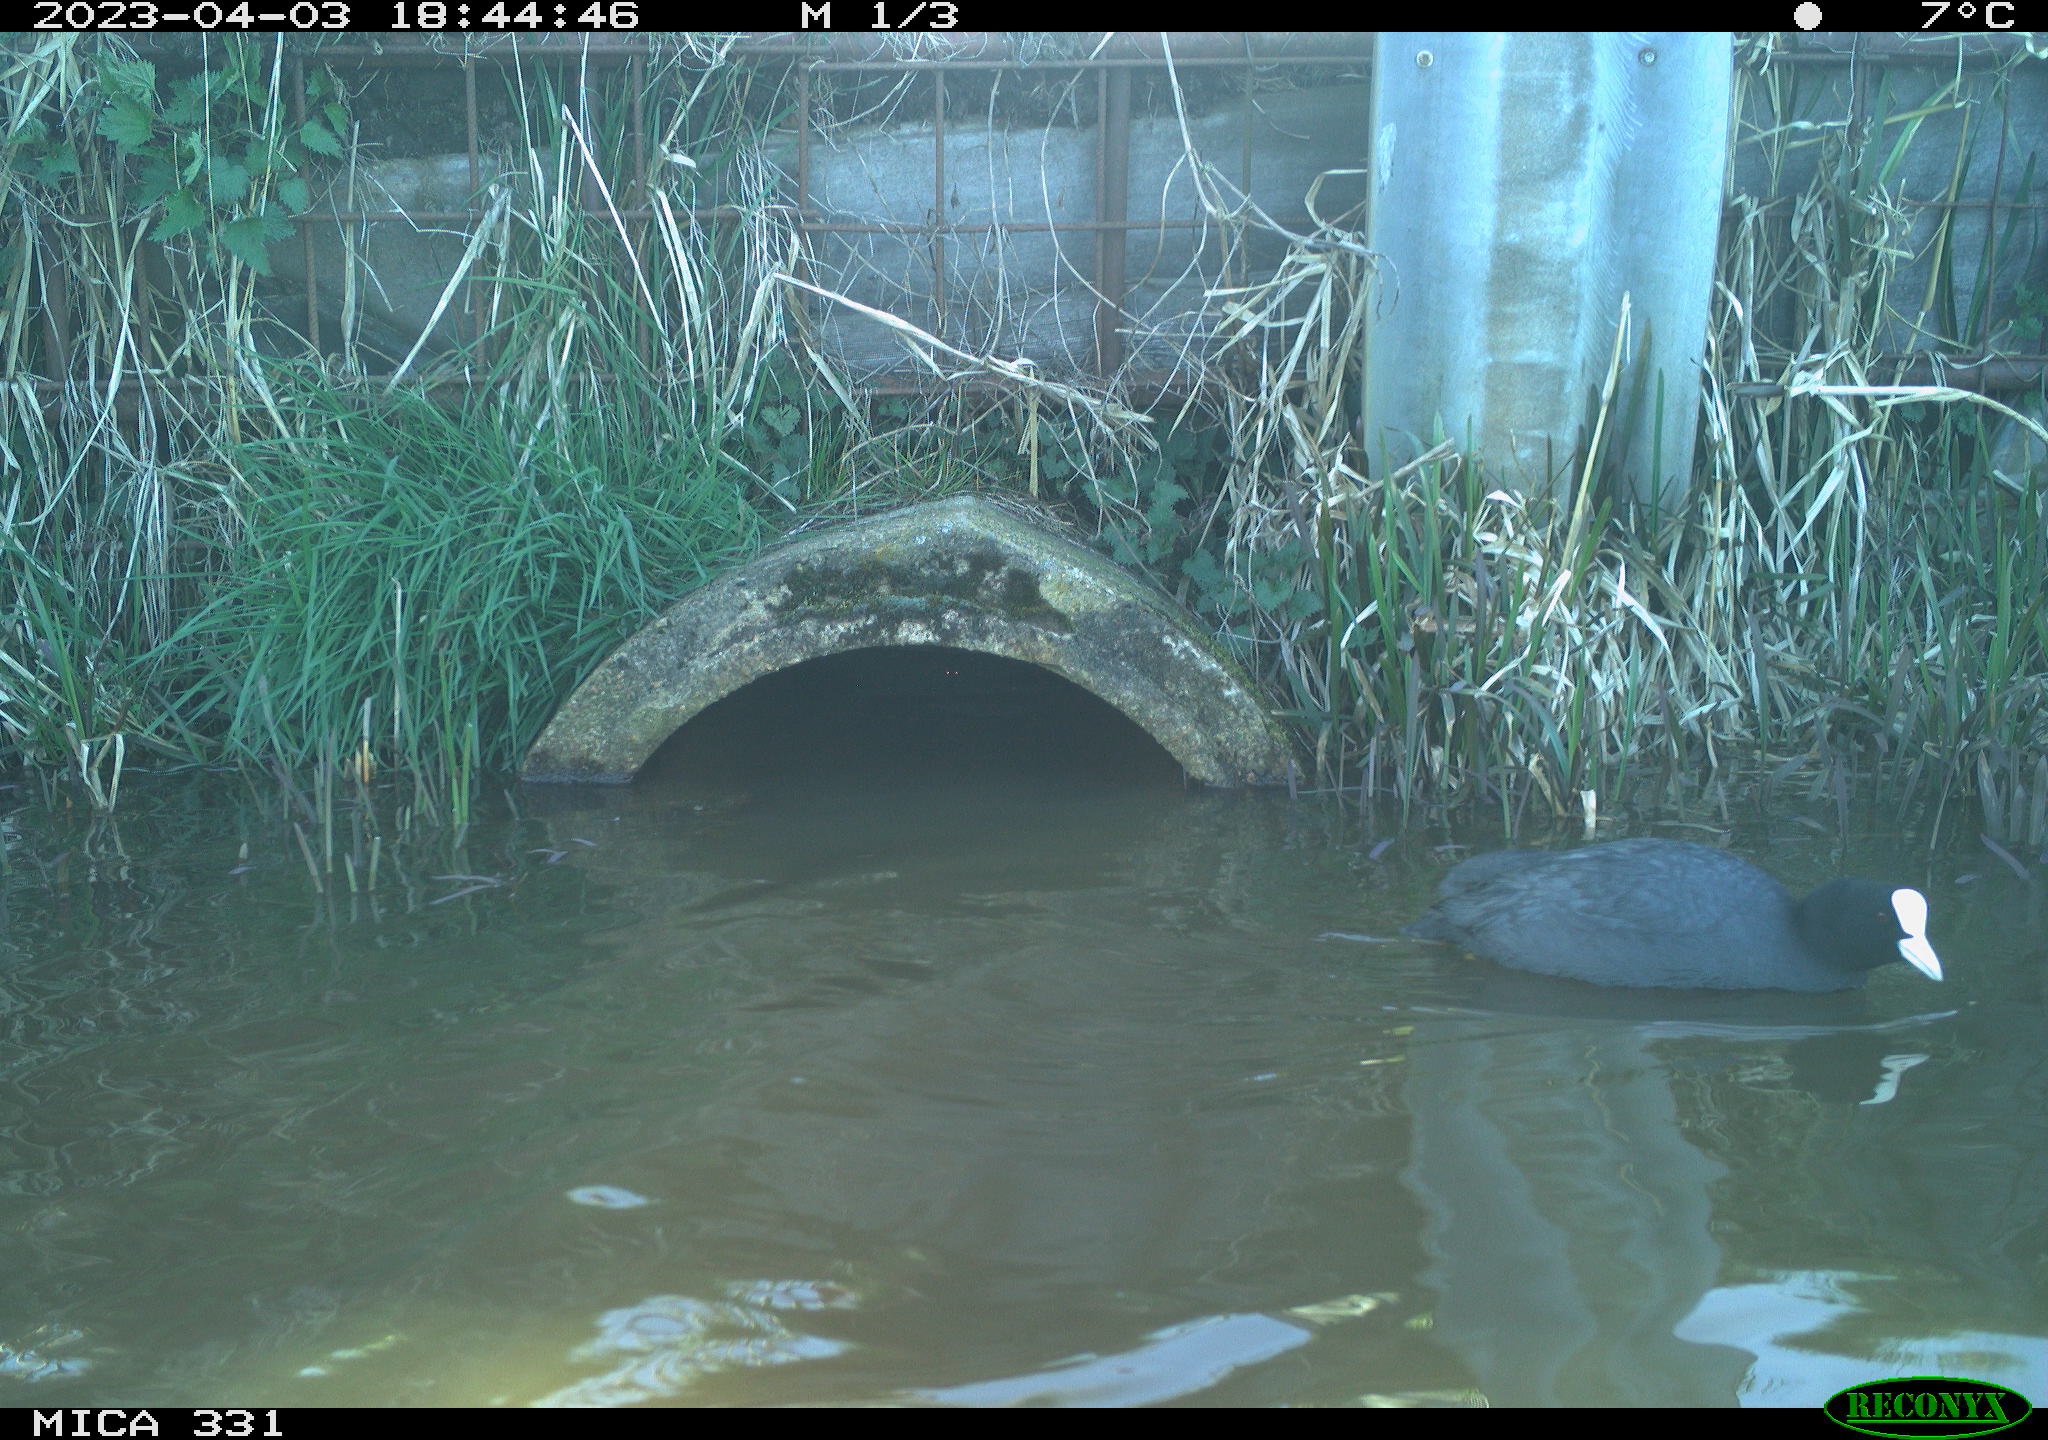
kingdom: Animalia
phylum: Chordata
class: Aves
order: Gruiformes
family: Rallidae
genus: Fulica
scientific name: Fulica atra
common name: Eurasian coot
